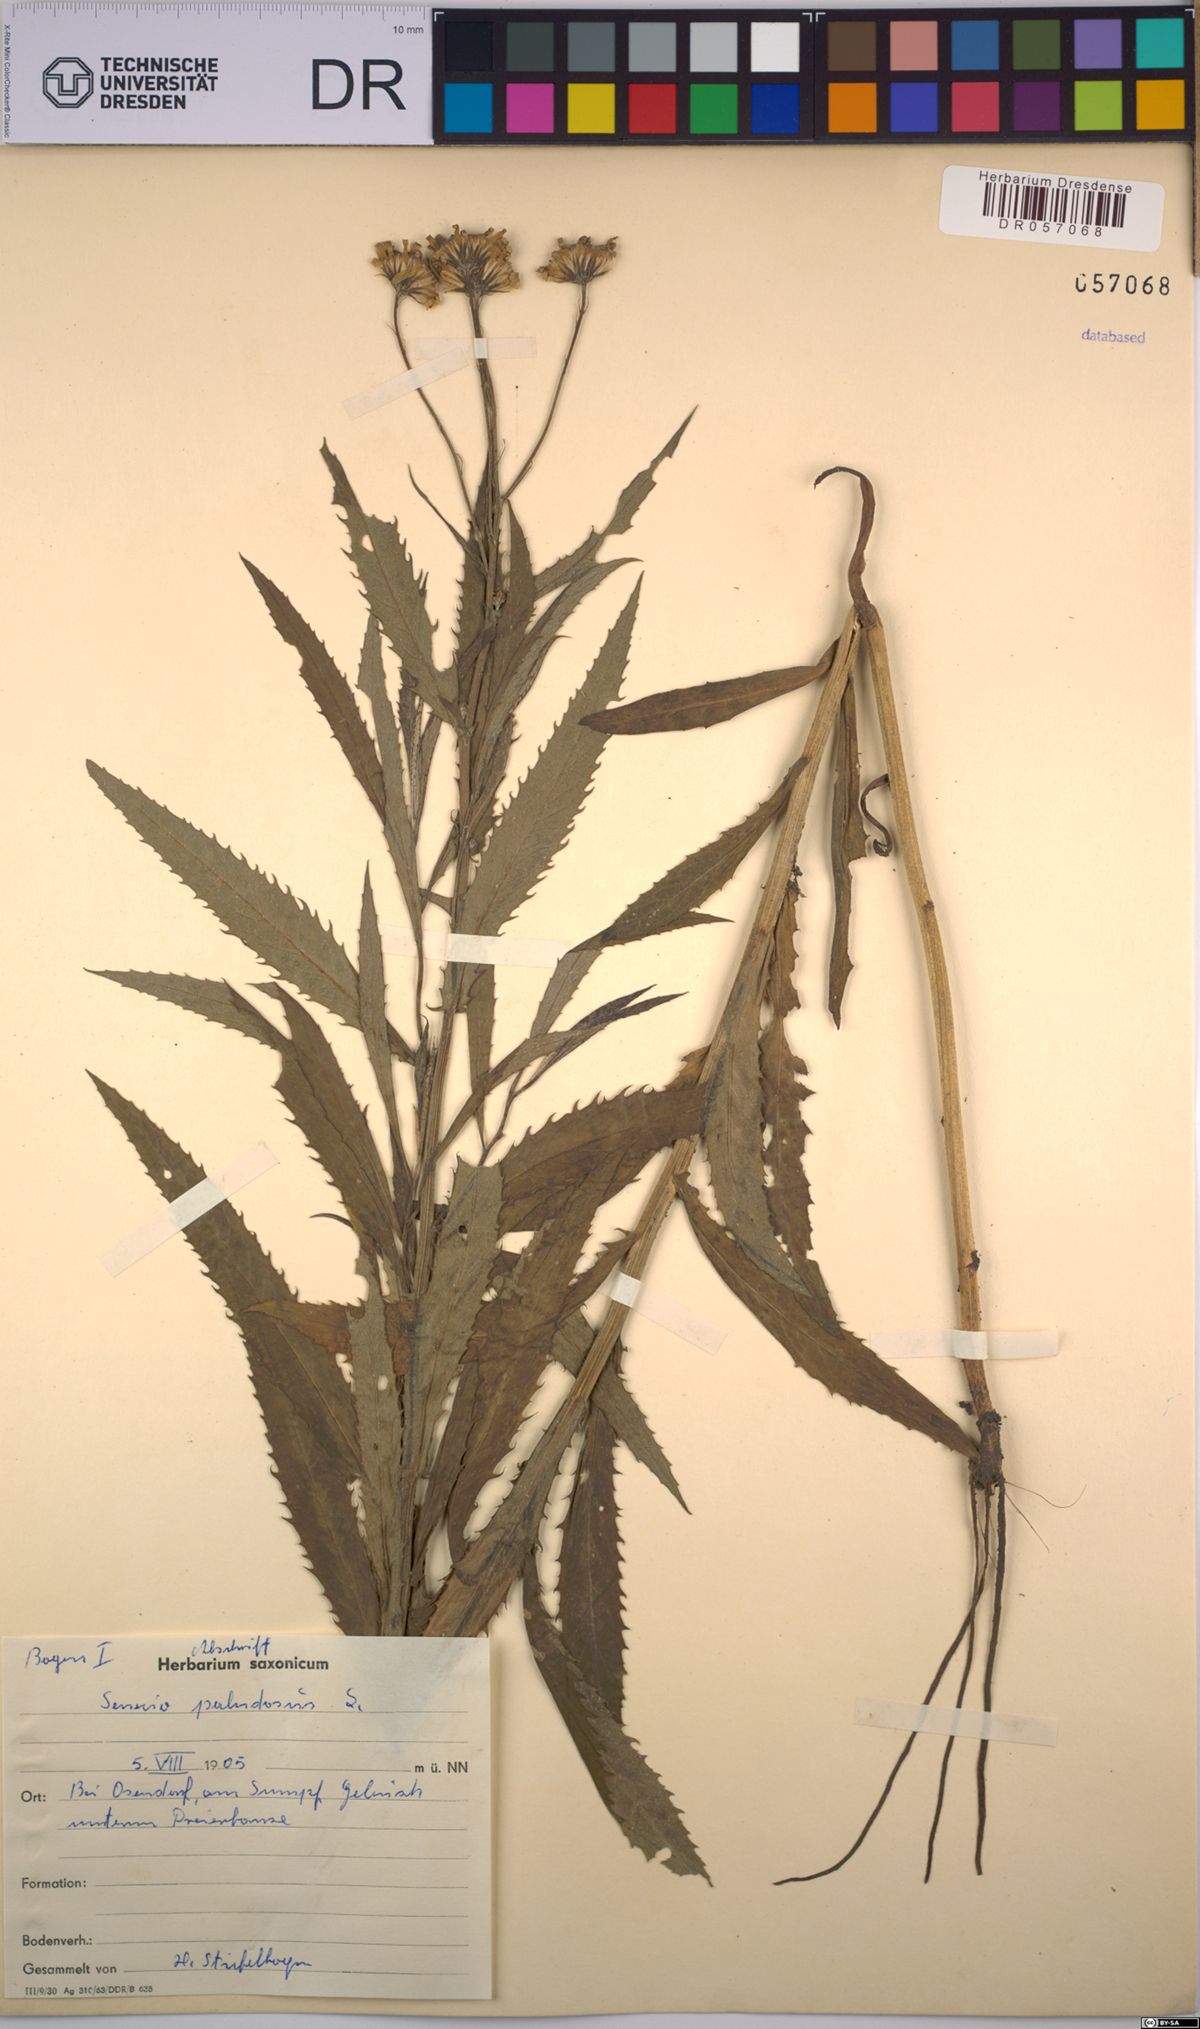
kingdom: Plantae
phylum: Tracheophyta
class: Magnoliopsida
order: Asterales
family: Asteraceae
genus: Jacobaea
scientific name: Jacobaea paludosa
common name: Fen ragwort
